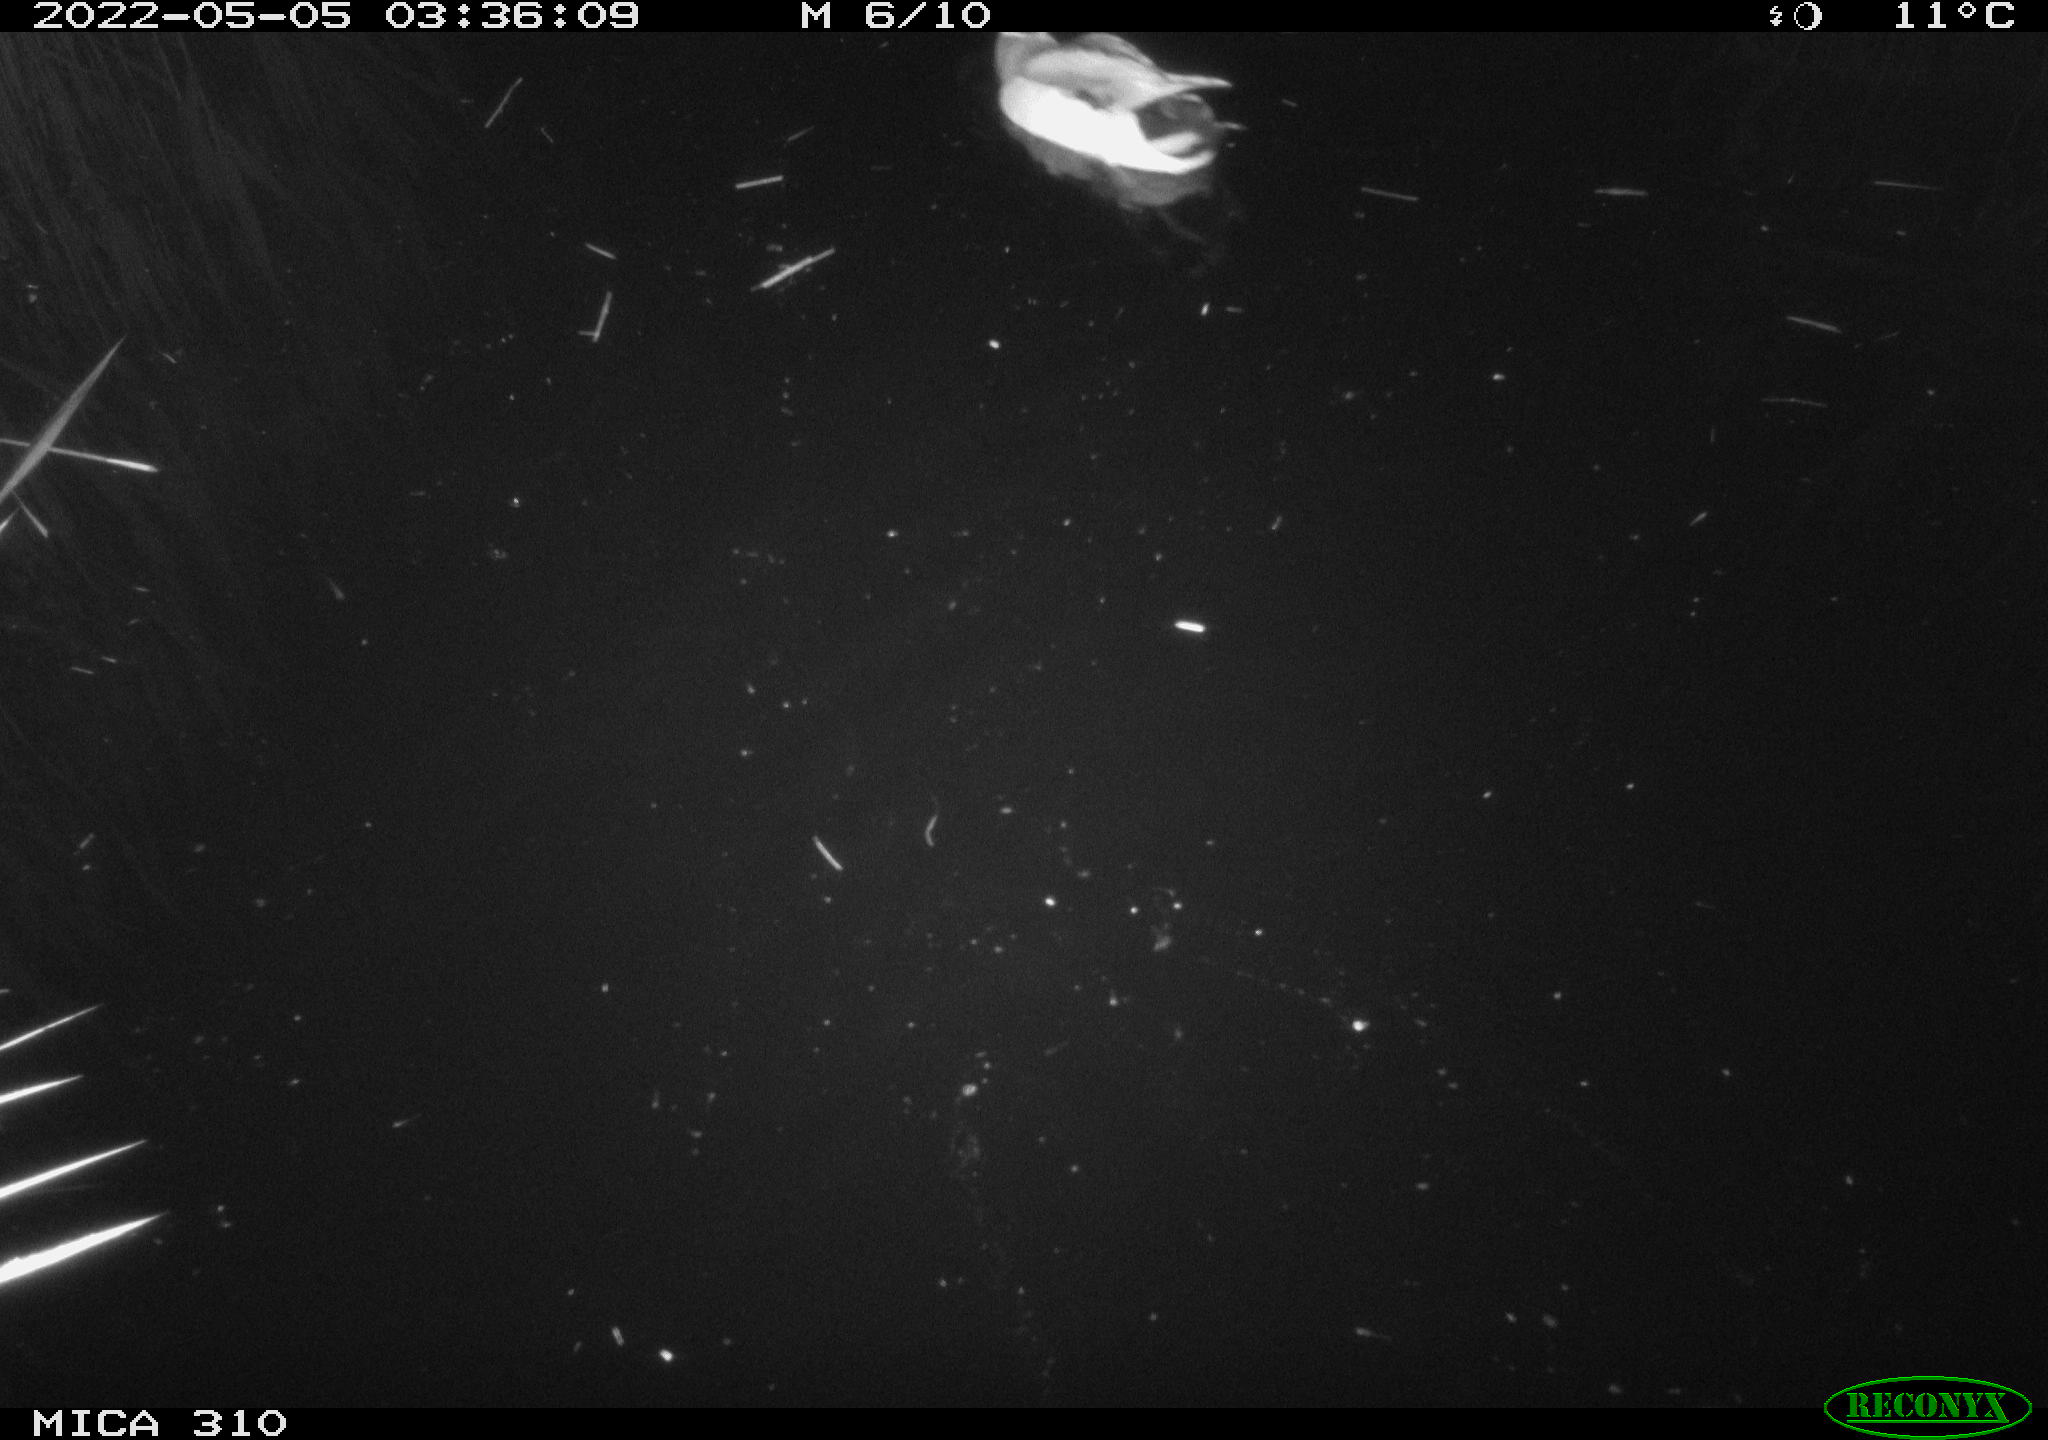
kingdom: Animalia
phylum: Chordata
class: Aves
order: Anseriformes
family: Anatidae
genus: Anas
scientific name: Anas platyrhynchos
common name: Mallard
